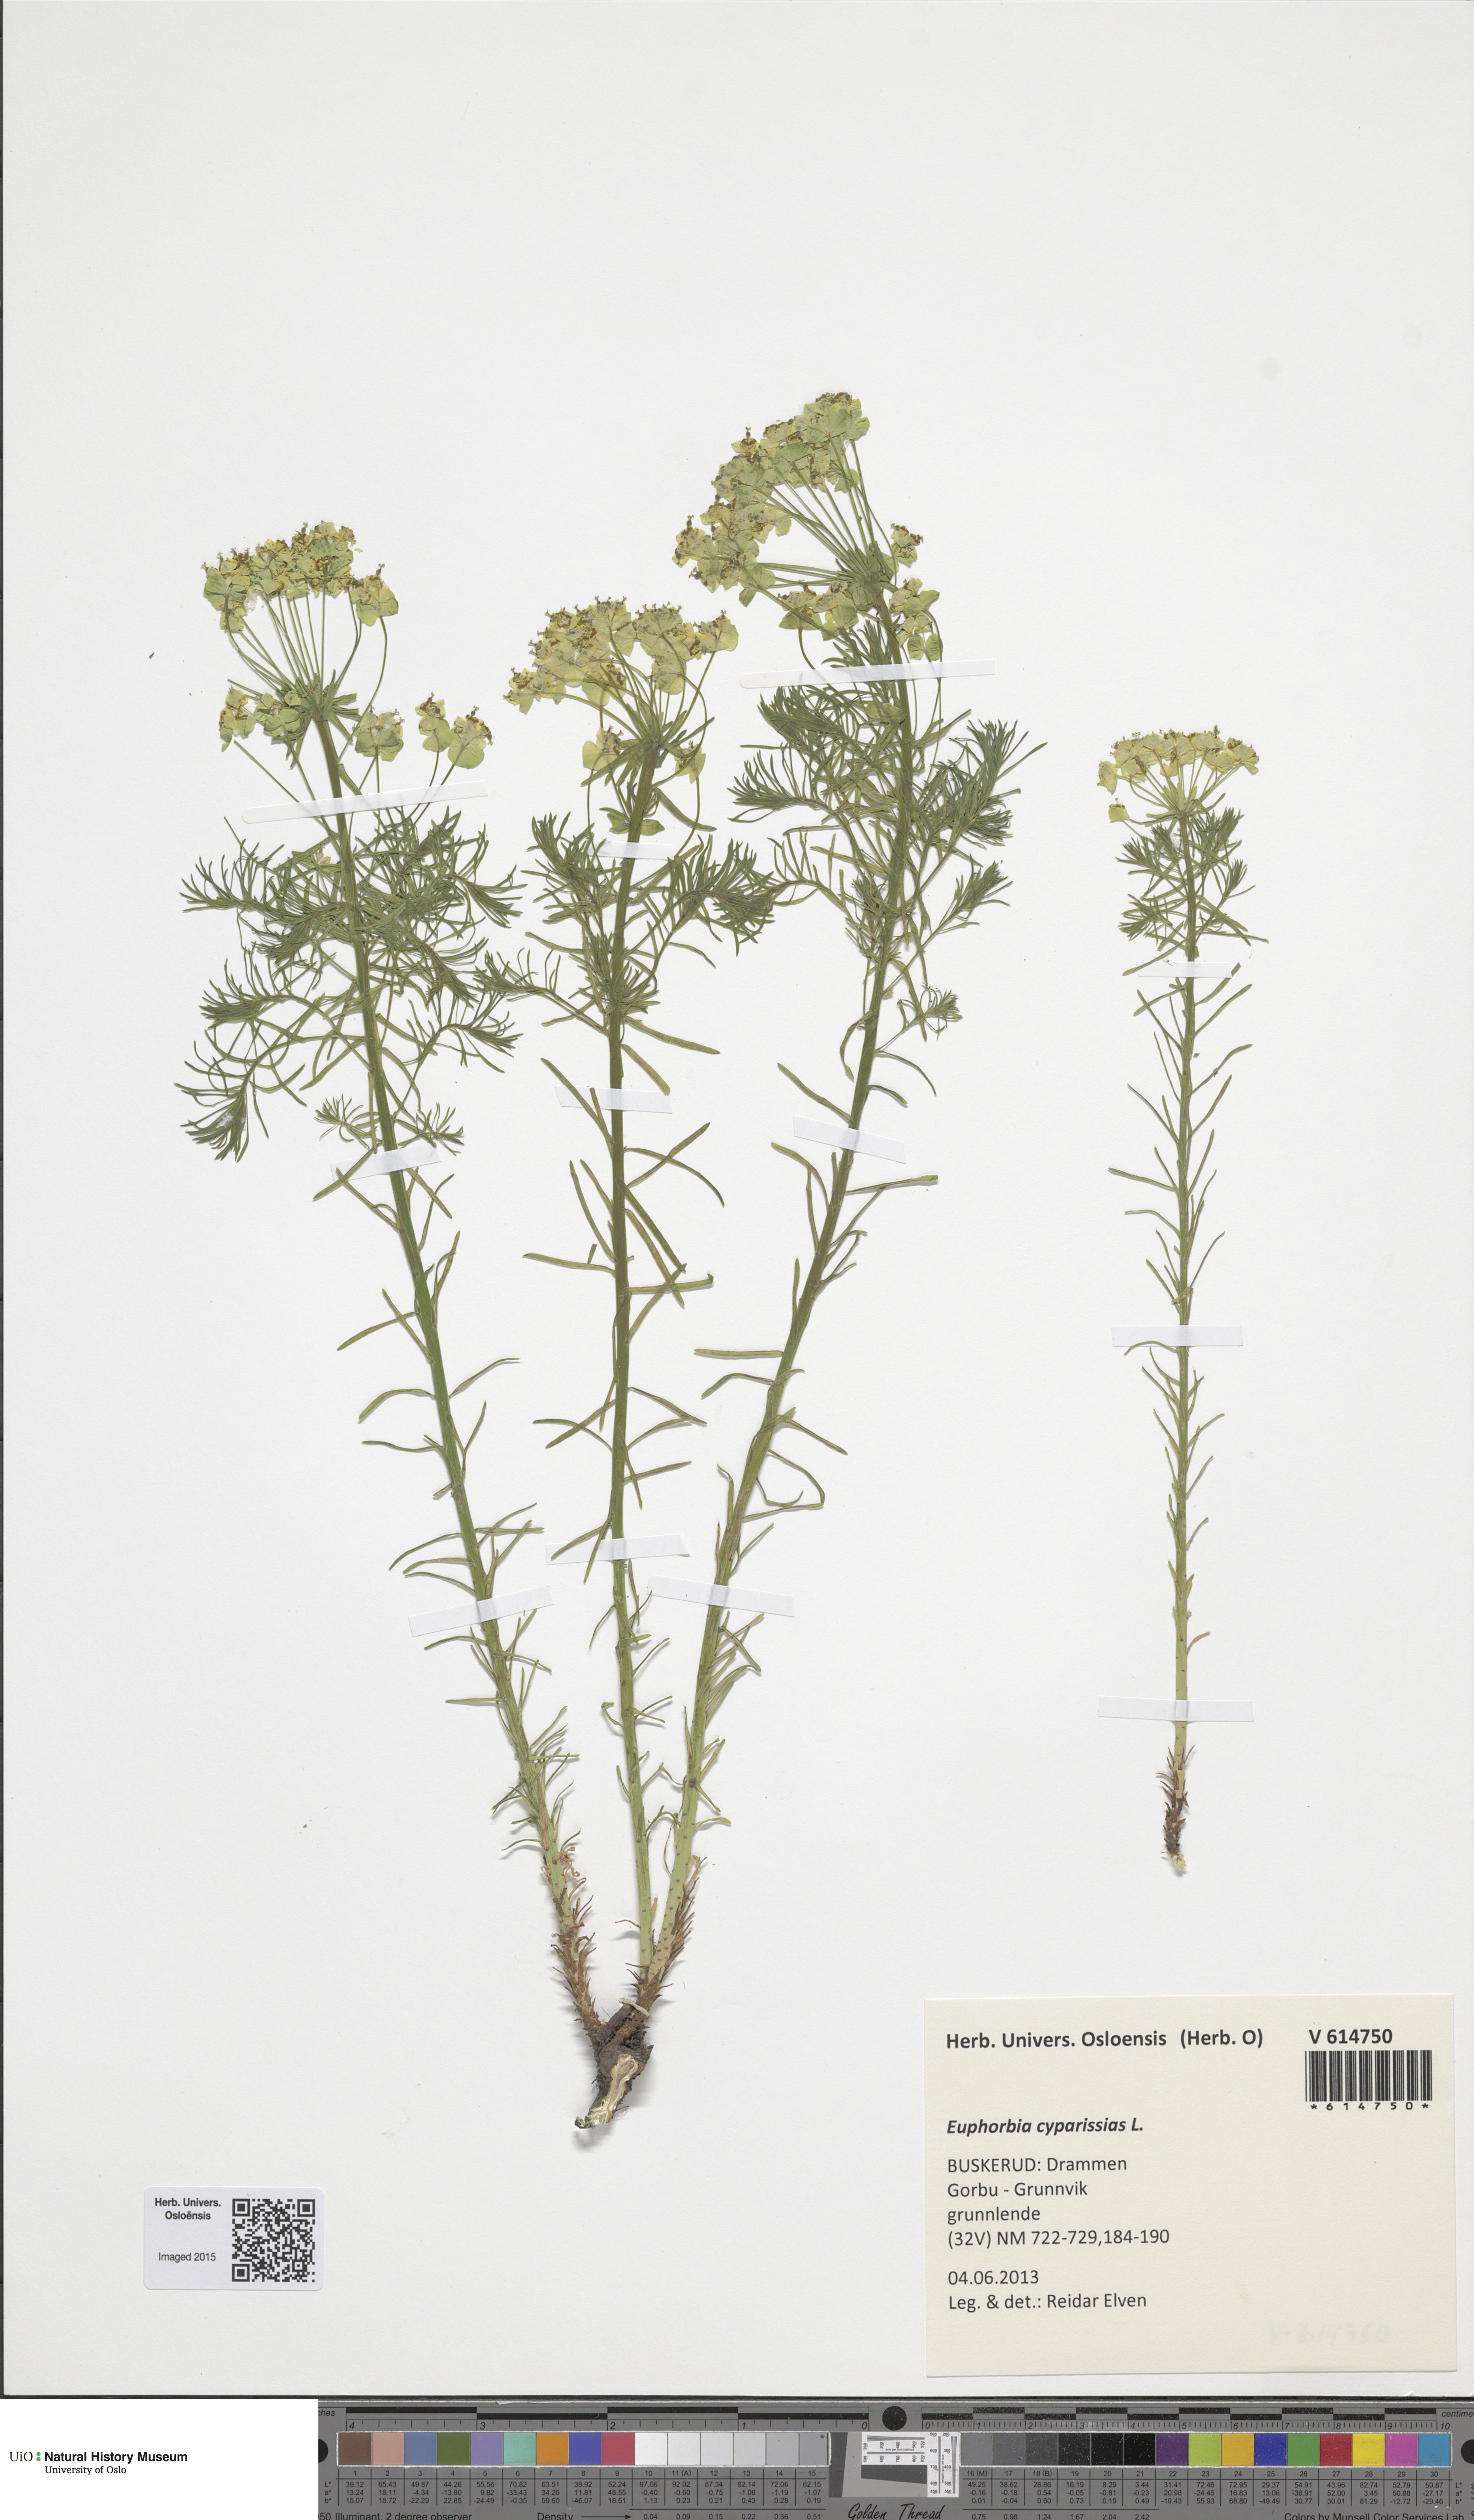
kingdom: Plantae
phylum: Tracheophyta
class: Magnoliopsida
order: Malpighiales
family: Euphorbiaceae
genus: Euphorbia
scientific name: Euphorbia cyparissias
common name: Cypress spurge
